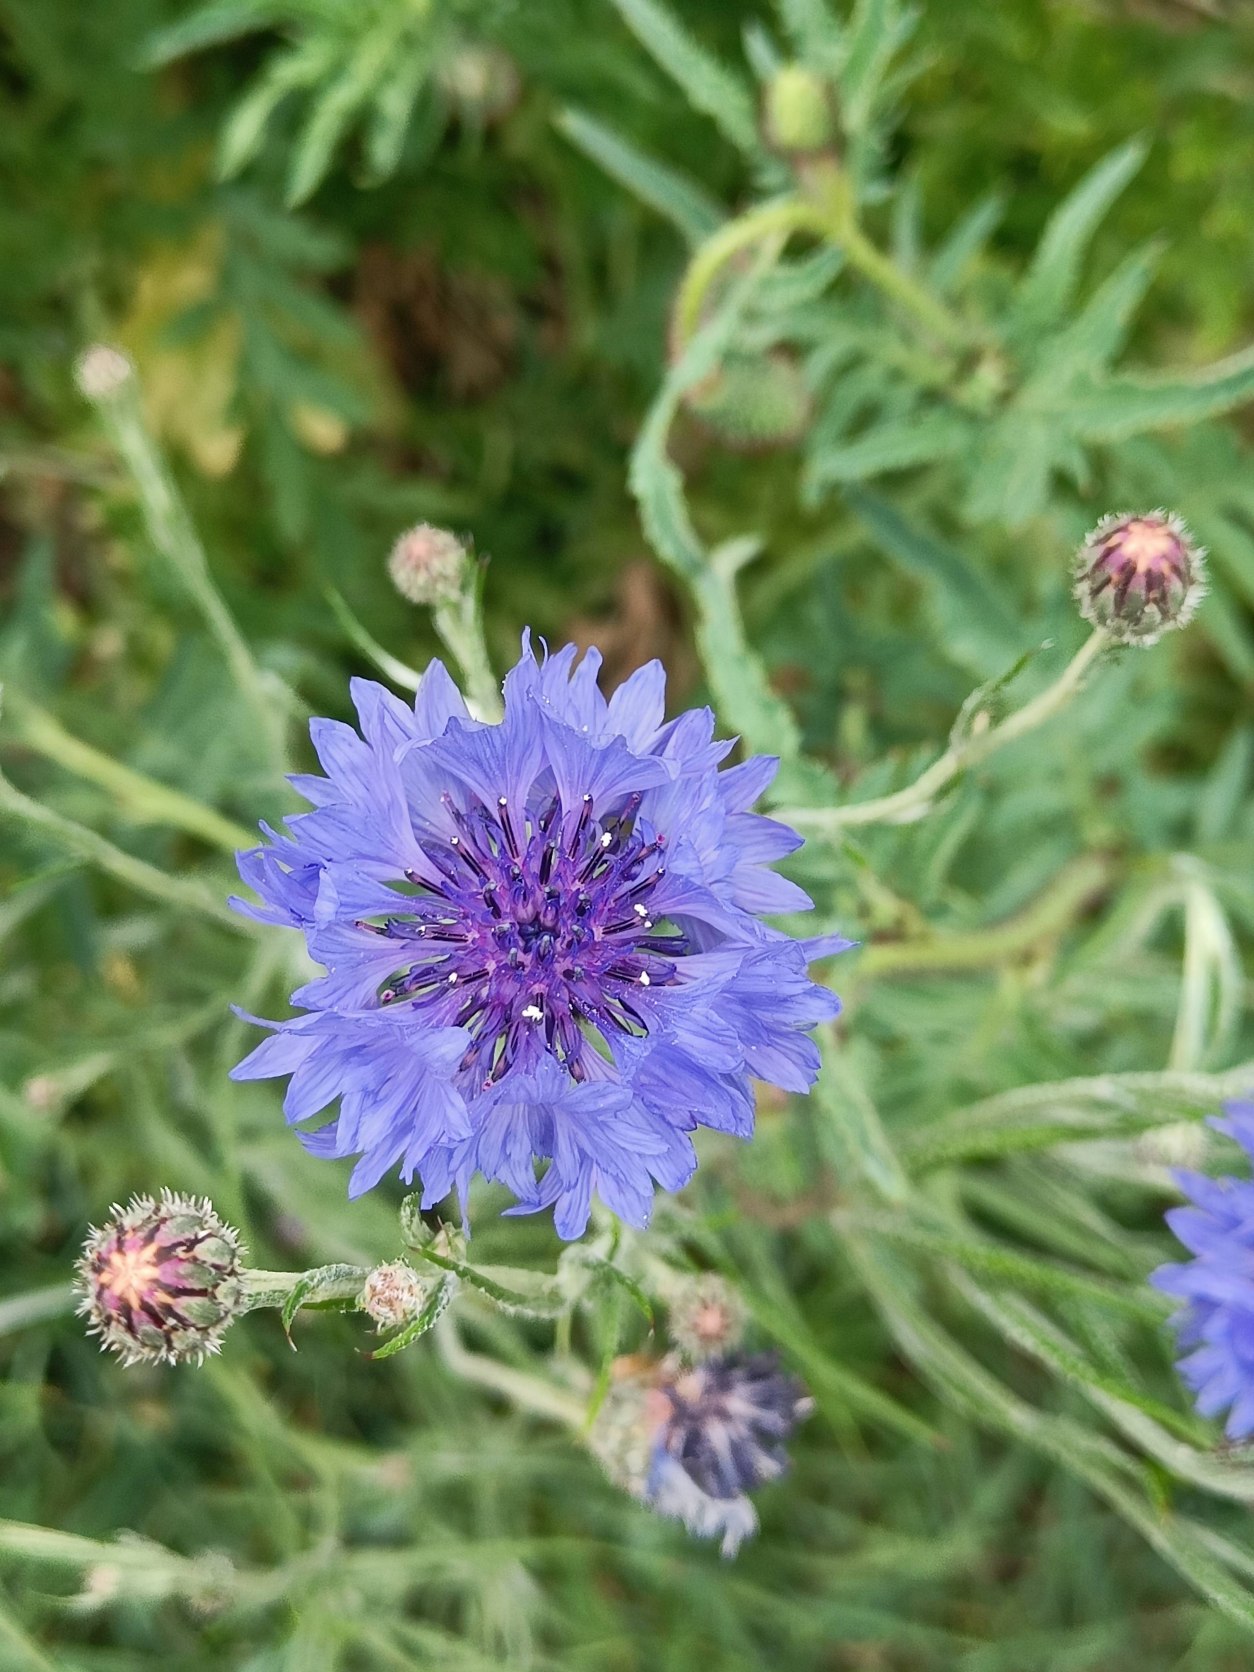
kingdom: Plantae
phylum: Tracheophyta
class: Magnoliopsida
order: Asterales
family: Asteraceae
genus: Centaurea
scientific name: Centaurea cyanus
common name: Kornblomst
